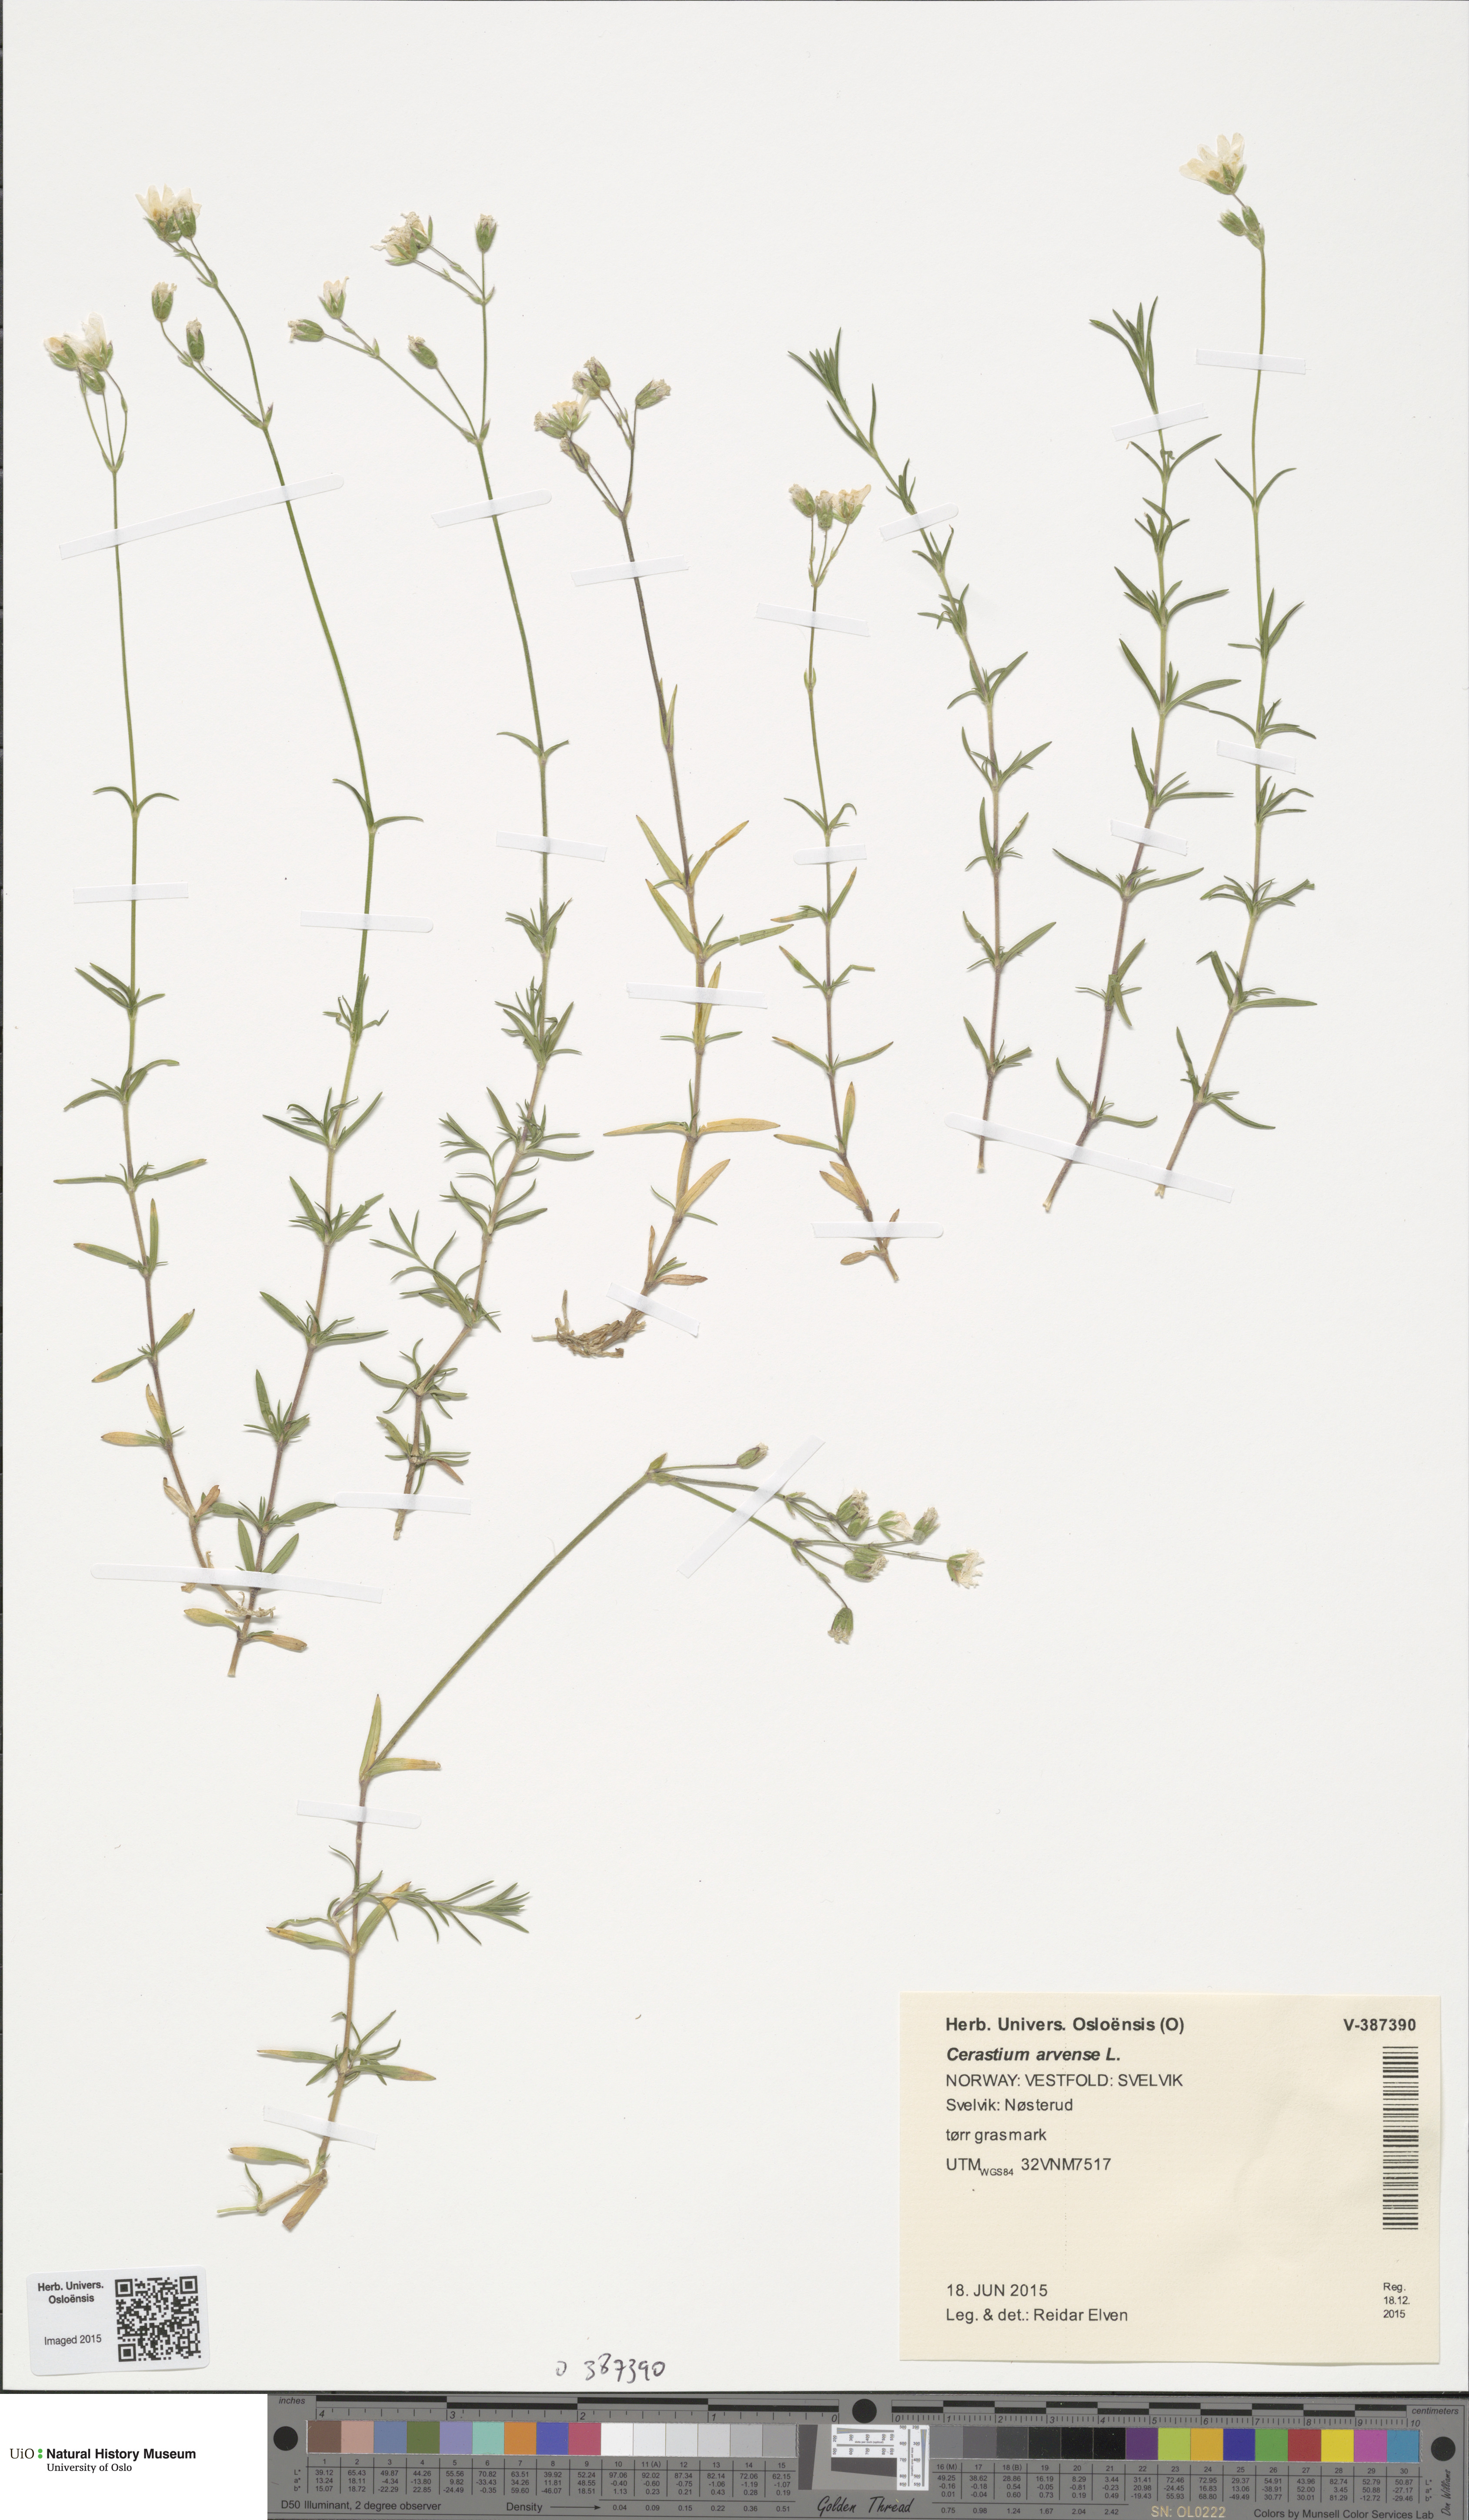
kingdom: Plantae
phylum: Tracheophyta
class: Magnoliopsida
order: Caryophyllales
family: Caryophyllaceae
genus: Cerastium
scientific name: Cerastium arvense
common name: Field mouse-ear
